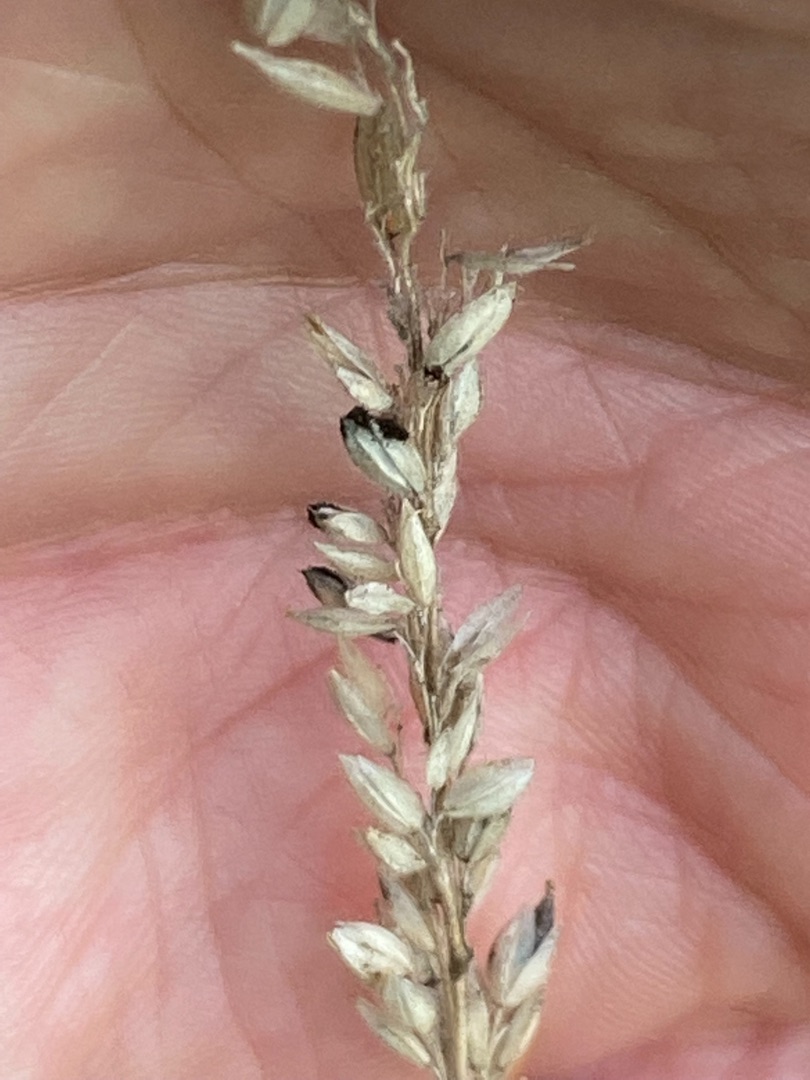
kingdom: Plantae
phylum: Tracheophyta
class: Liliopsida
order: Poales
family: Poaceae
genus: Holcus
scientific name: Holcus lanatus
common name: Fløjlsgræs
